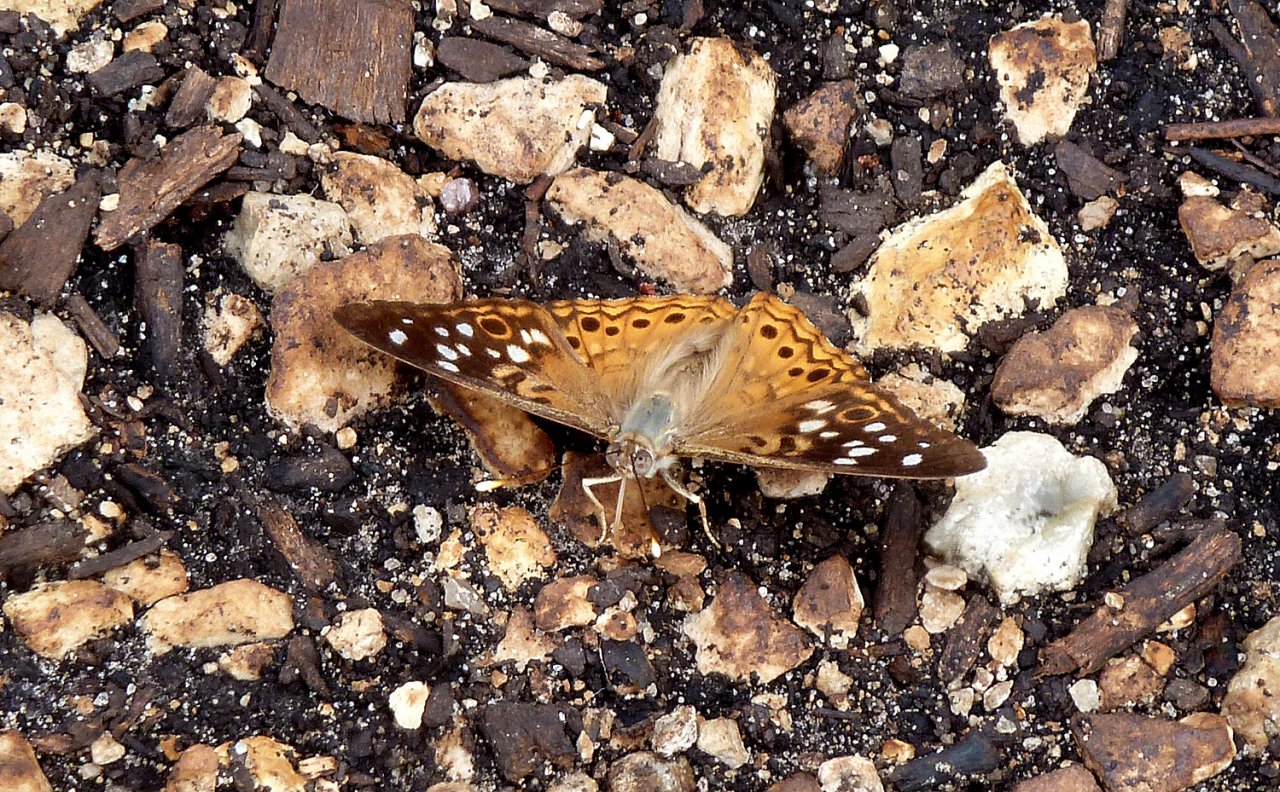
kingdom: Animalia
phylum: Arthropoda
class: Insecta
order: Lepidoptera
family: Nymphalidae
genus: Asterocampa
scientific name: Asterocampa celtis
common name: Hackberry Emperor
